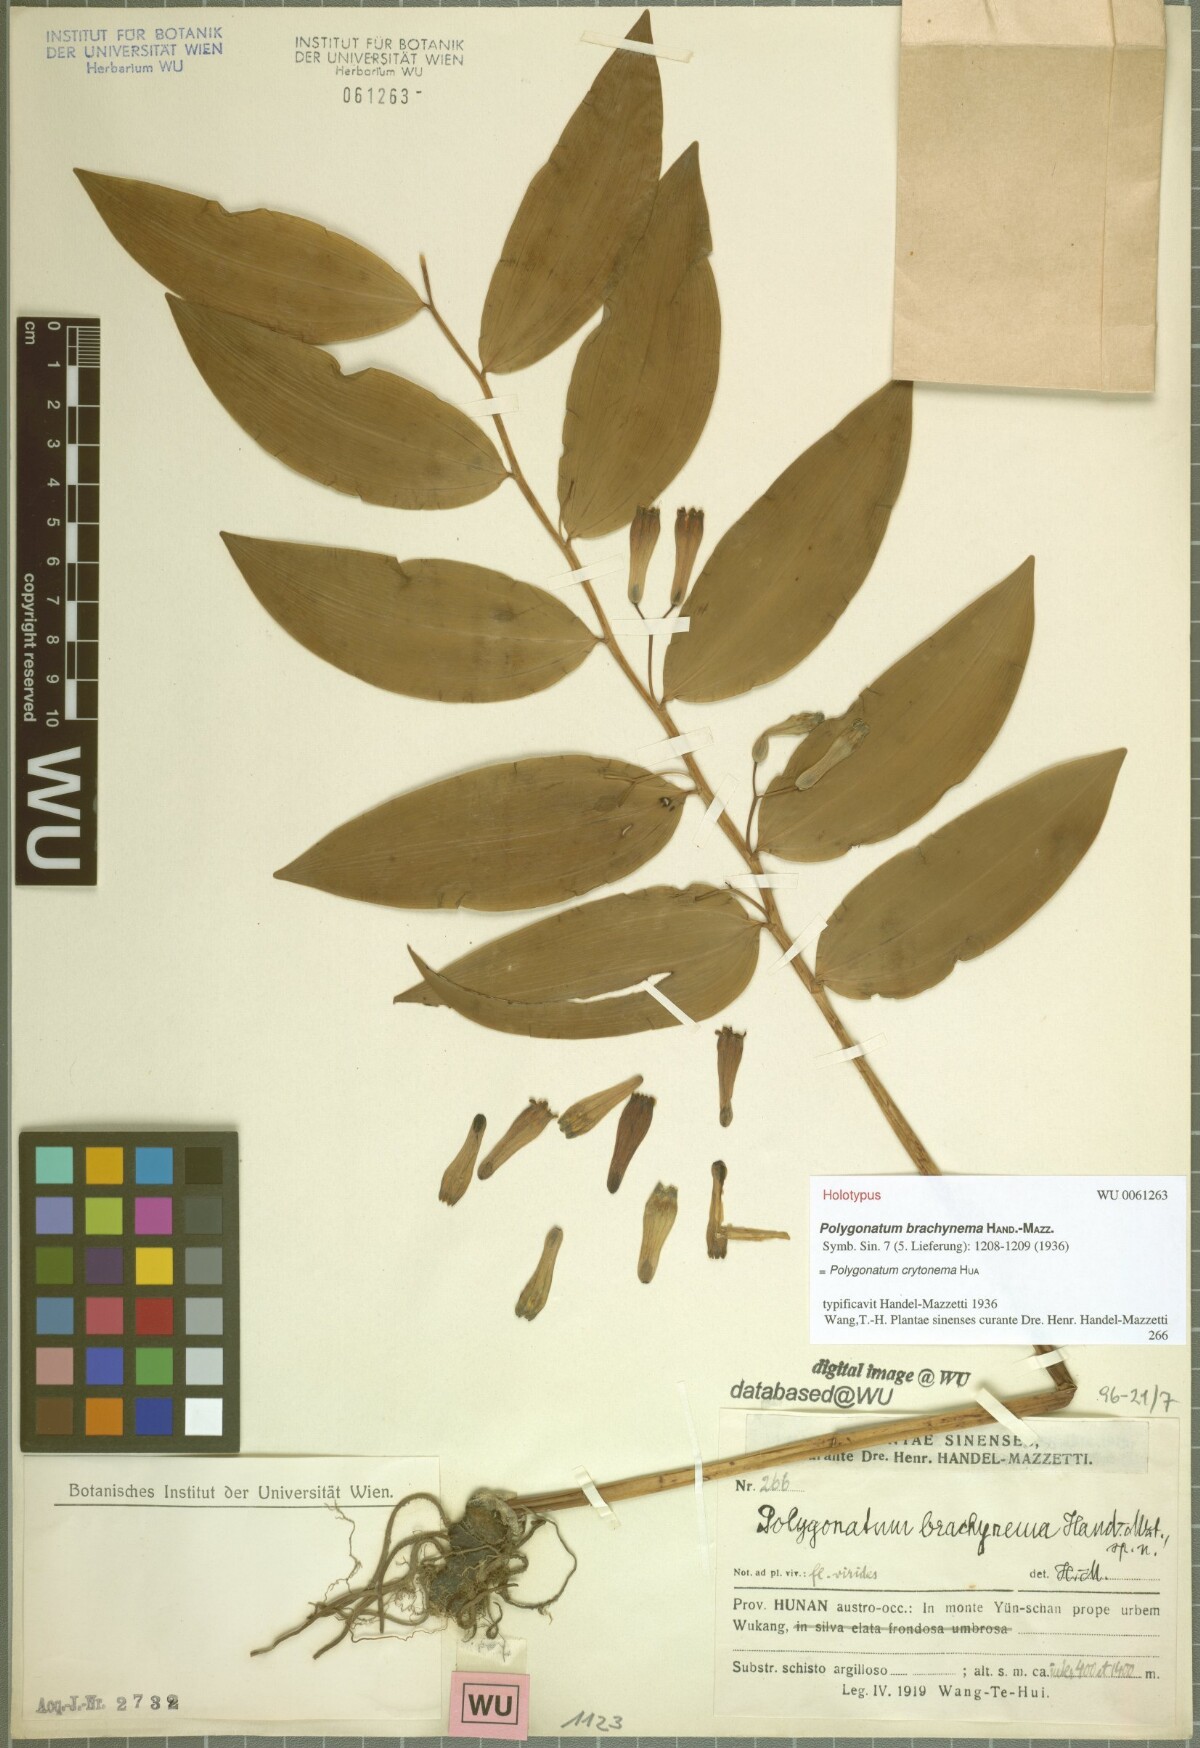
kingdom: Plantae
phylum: Tracheophyta
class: Liliopsida
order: Asparagales
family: Asparagaceae
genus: Polygonatum
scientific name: Polygonatum cyrtonema
